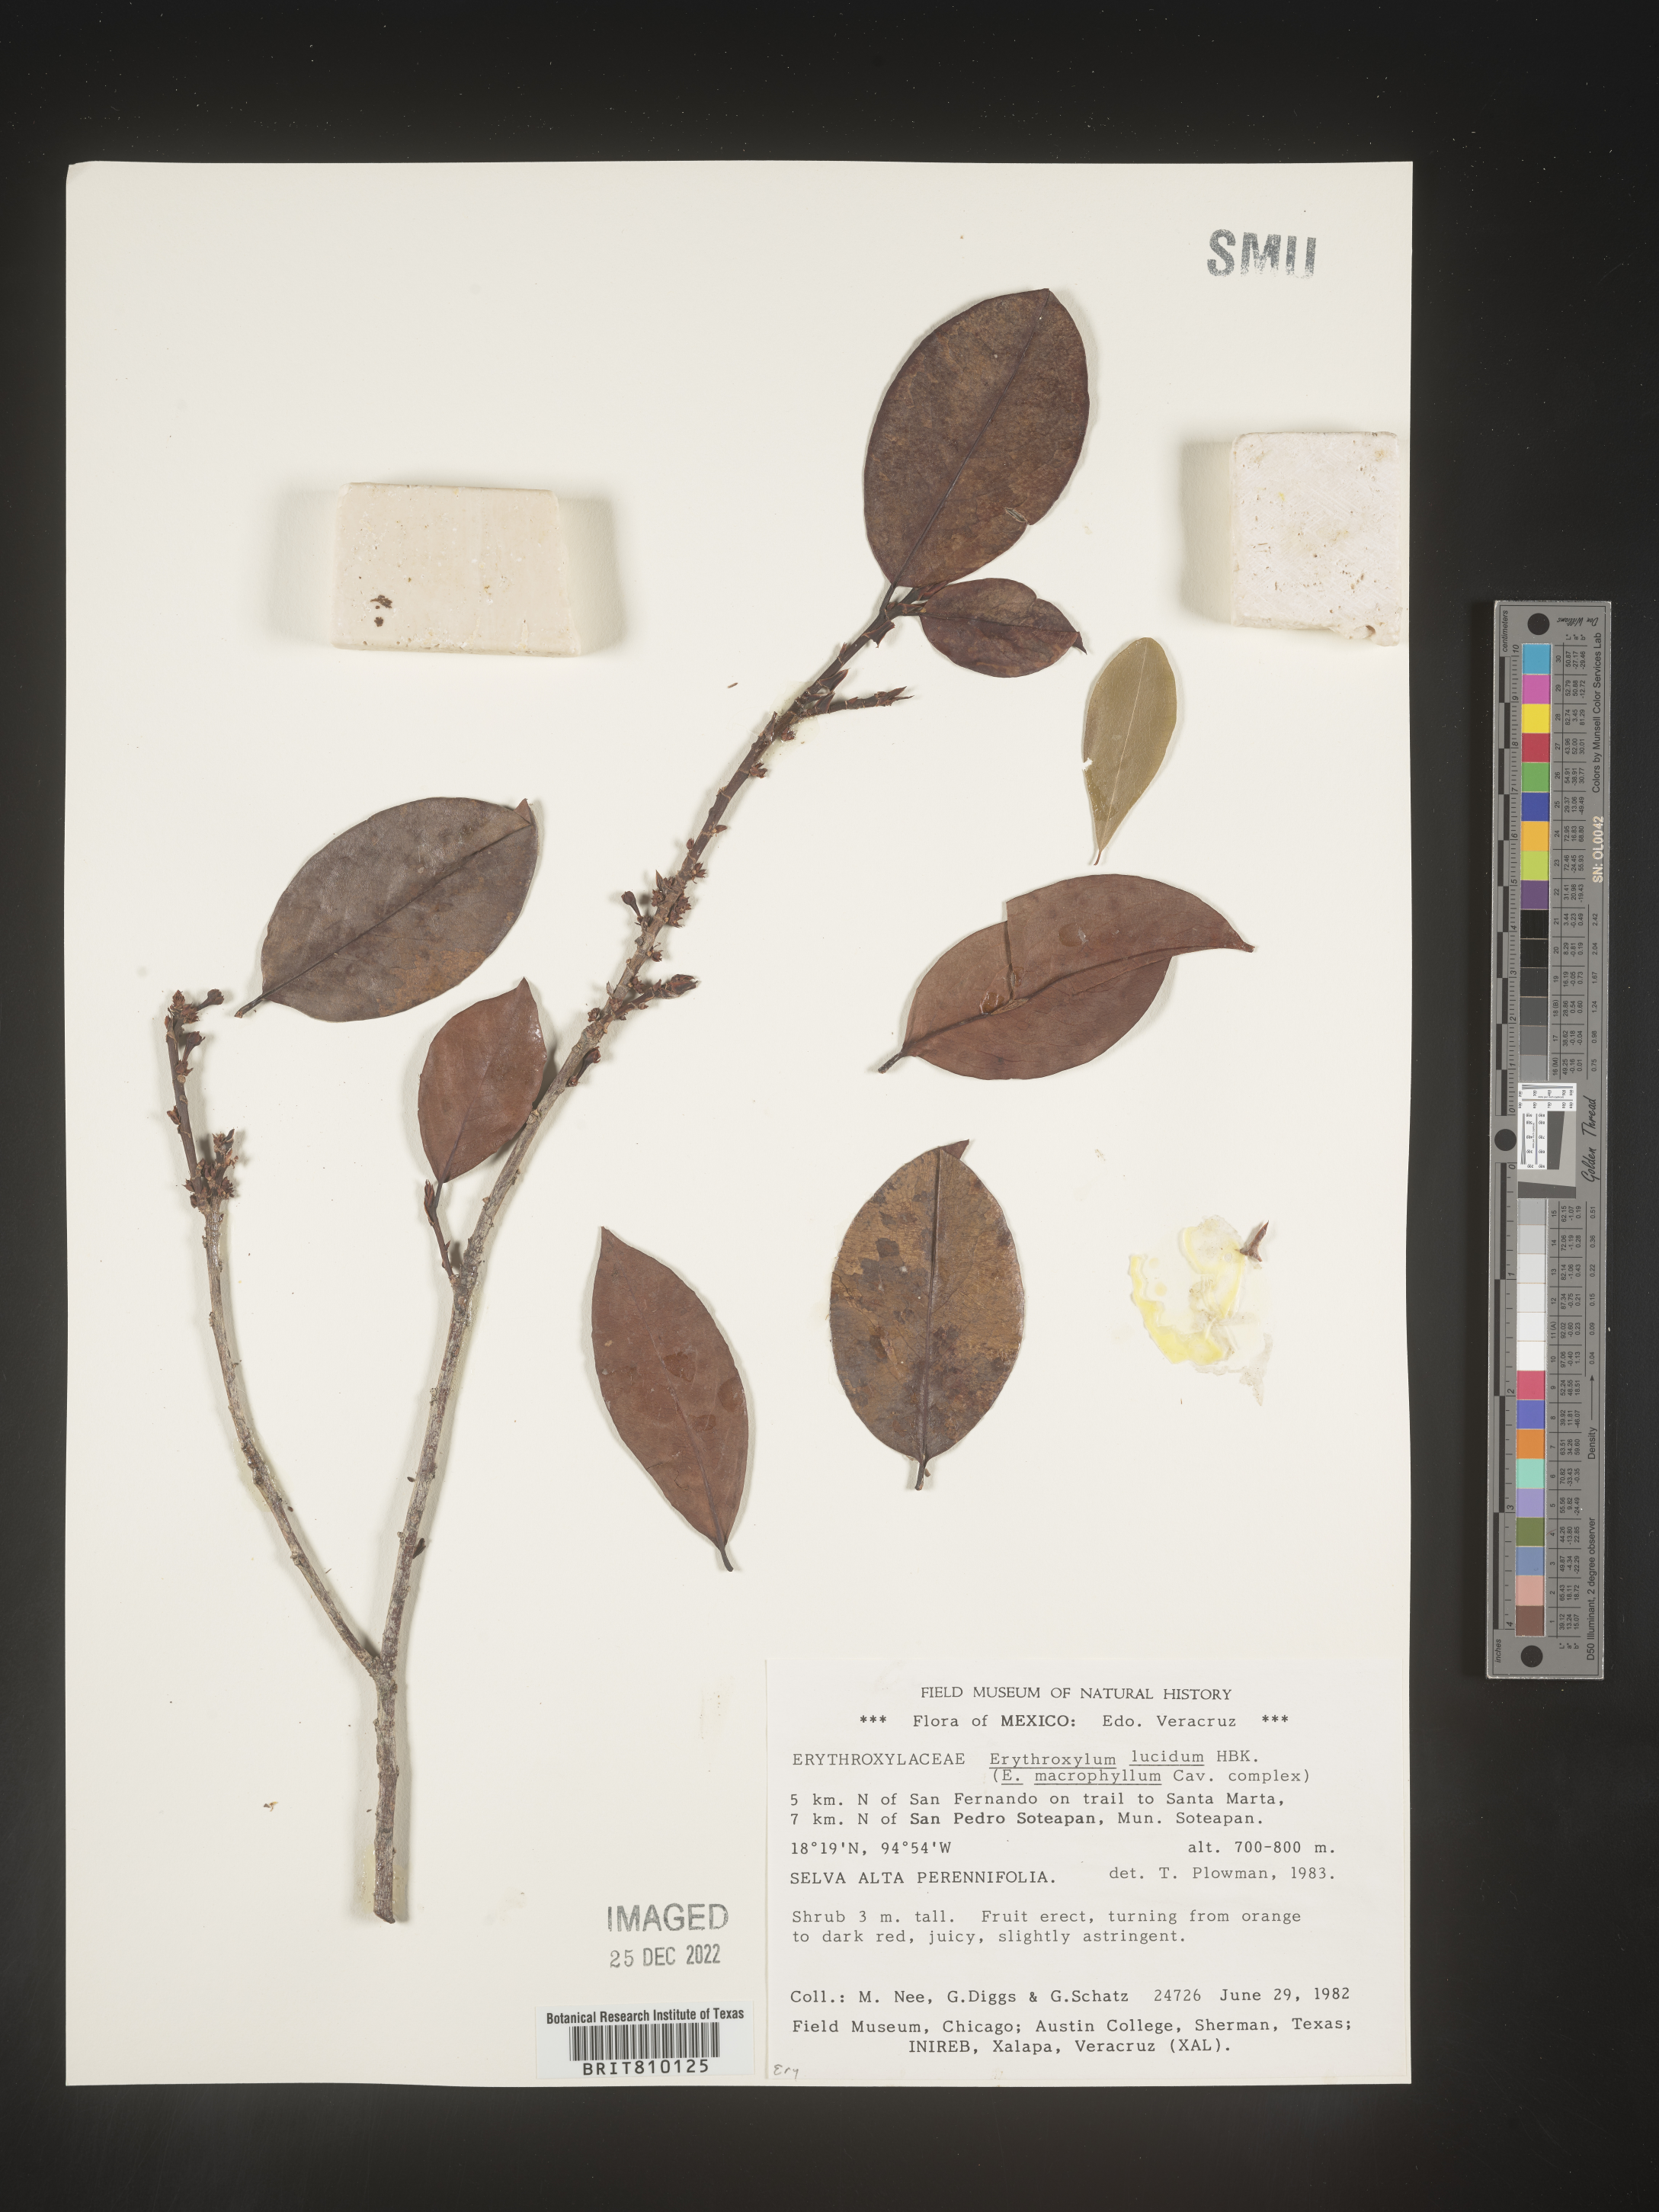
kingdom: Plantae
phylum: Tracheophyta
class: Magnoliopsida
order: Malpighiales
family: Erythroxylaceae
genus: Erythroxylum
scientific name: Erythroxylum
